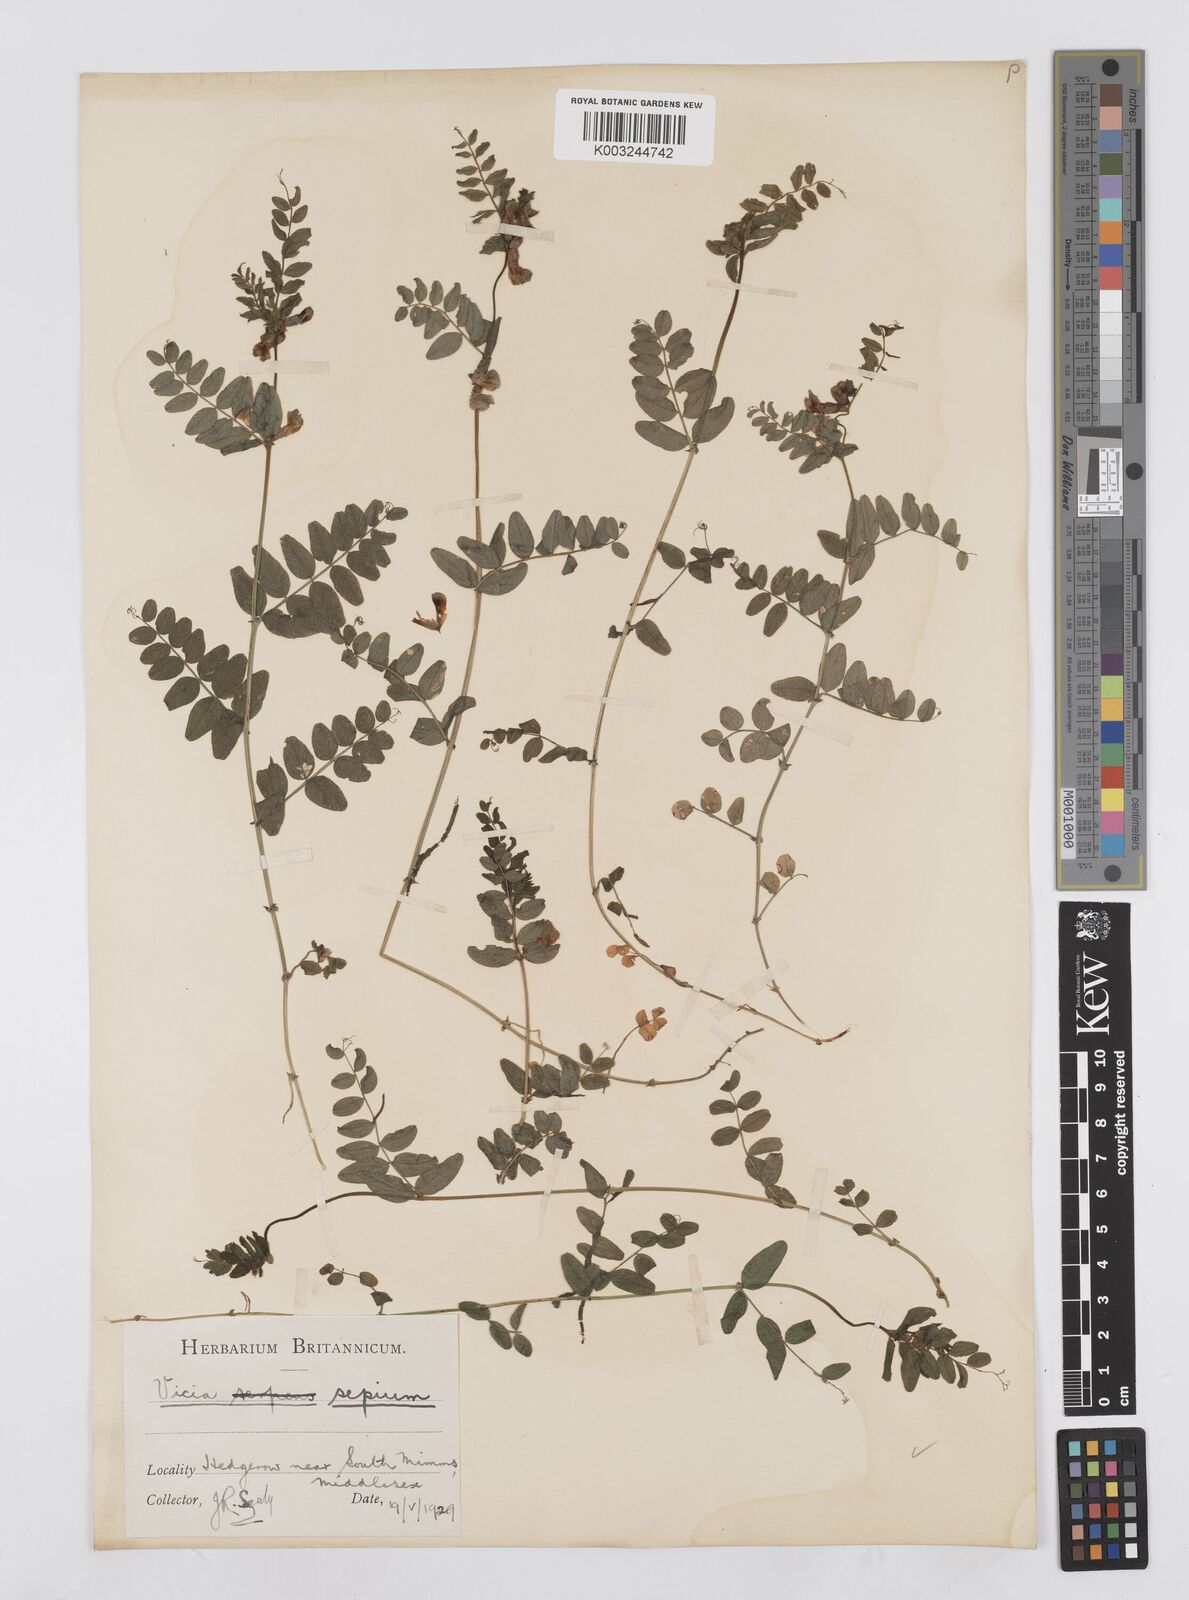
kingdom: Plantae
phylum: Tracheophyta
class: Magnoliopsida
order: Fabales
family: Fabaceae
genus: Vicia
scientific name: Vicia sepium
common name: Bush vetch
